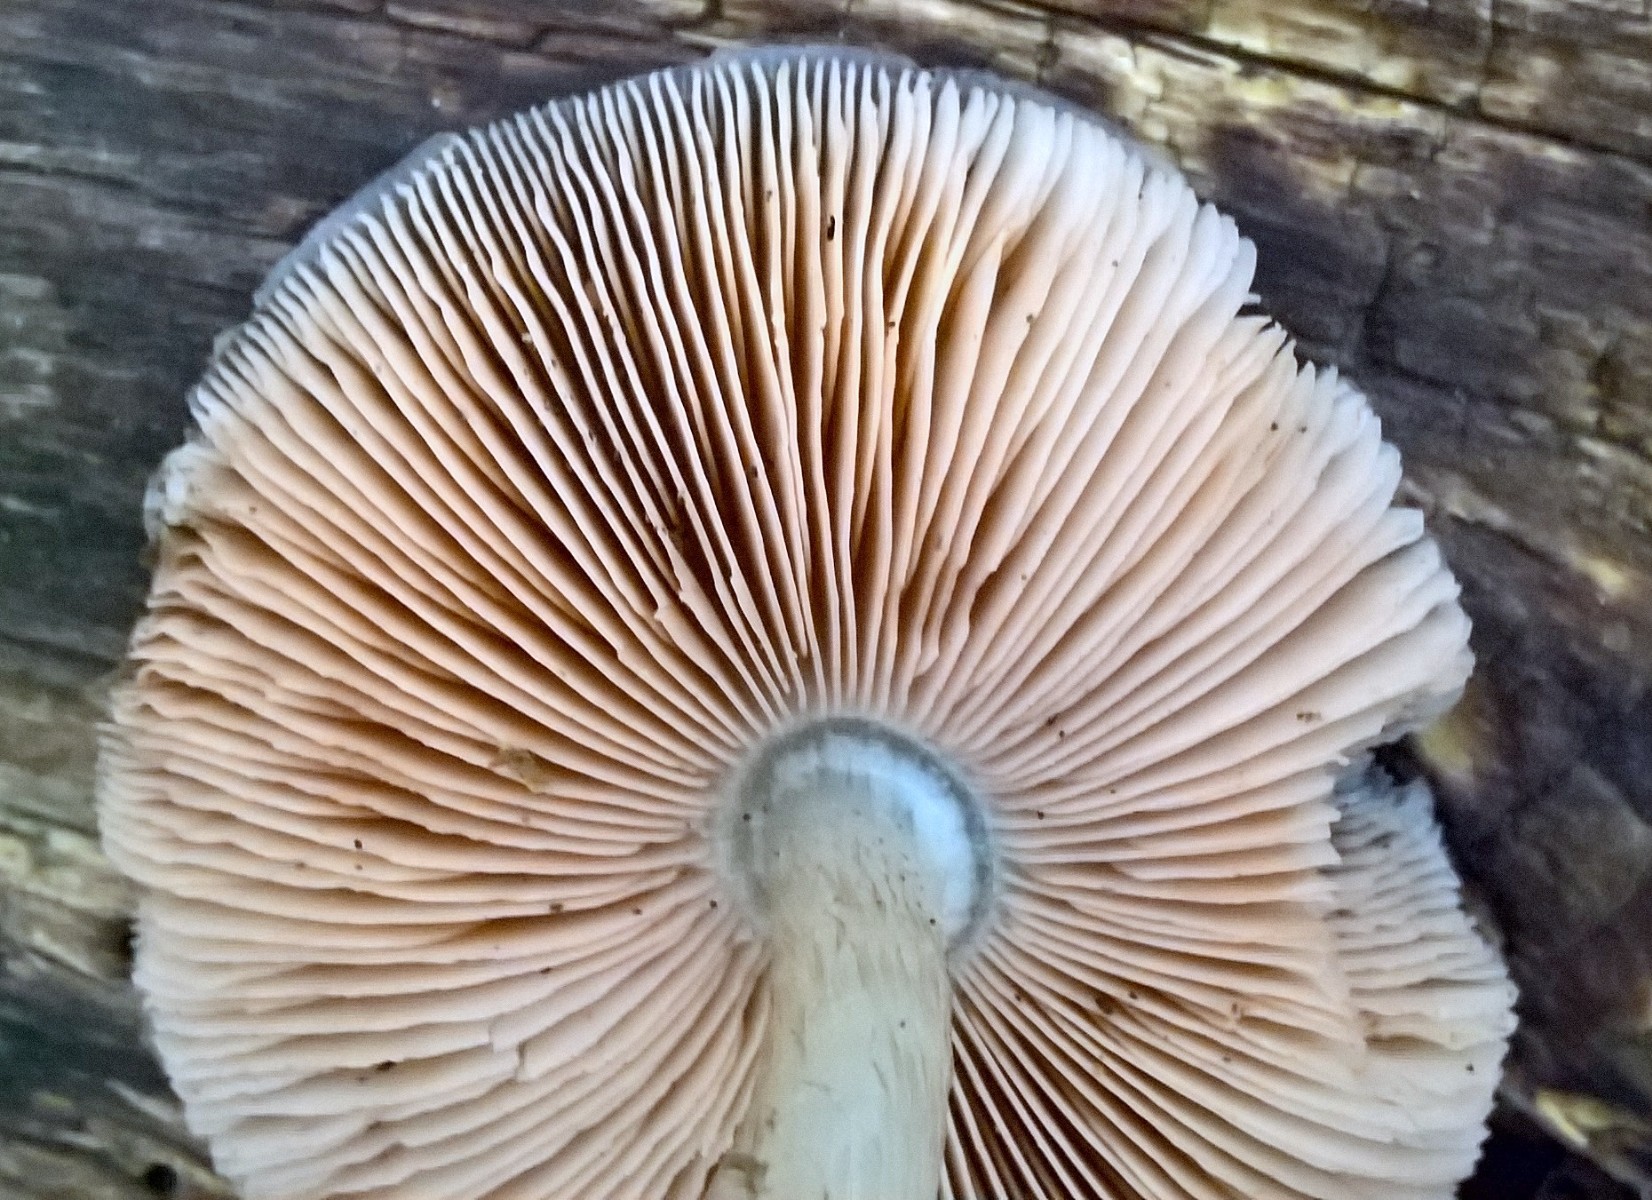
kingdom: Fungi
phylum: Basidiomycota
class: Agaricomycetes
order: Agaricales
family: Pluteaceae
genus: Pluteus
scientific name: Pluteus cervinus
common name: sodfarvet skærmhat
